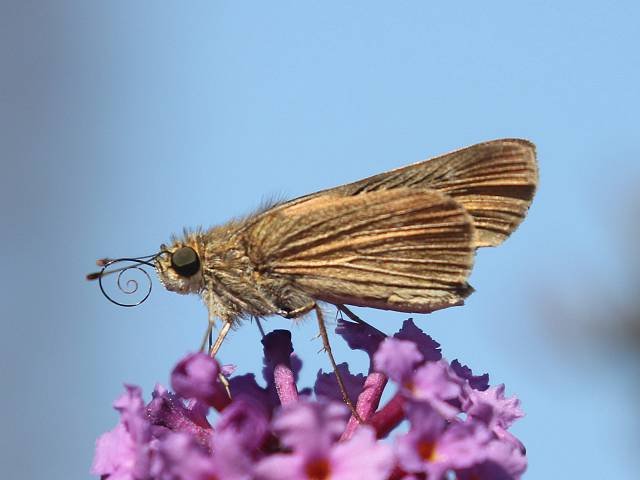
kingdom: Animalia
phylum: Arthropoda
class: Insecta
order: Lepidoptera
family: Hesperiidae
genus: Panoquina
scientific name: Panoquina ocola
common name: Ocola Skipper
